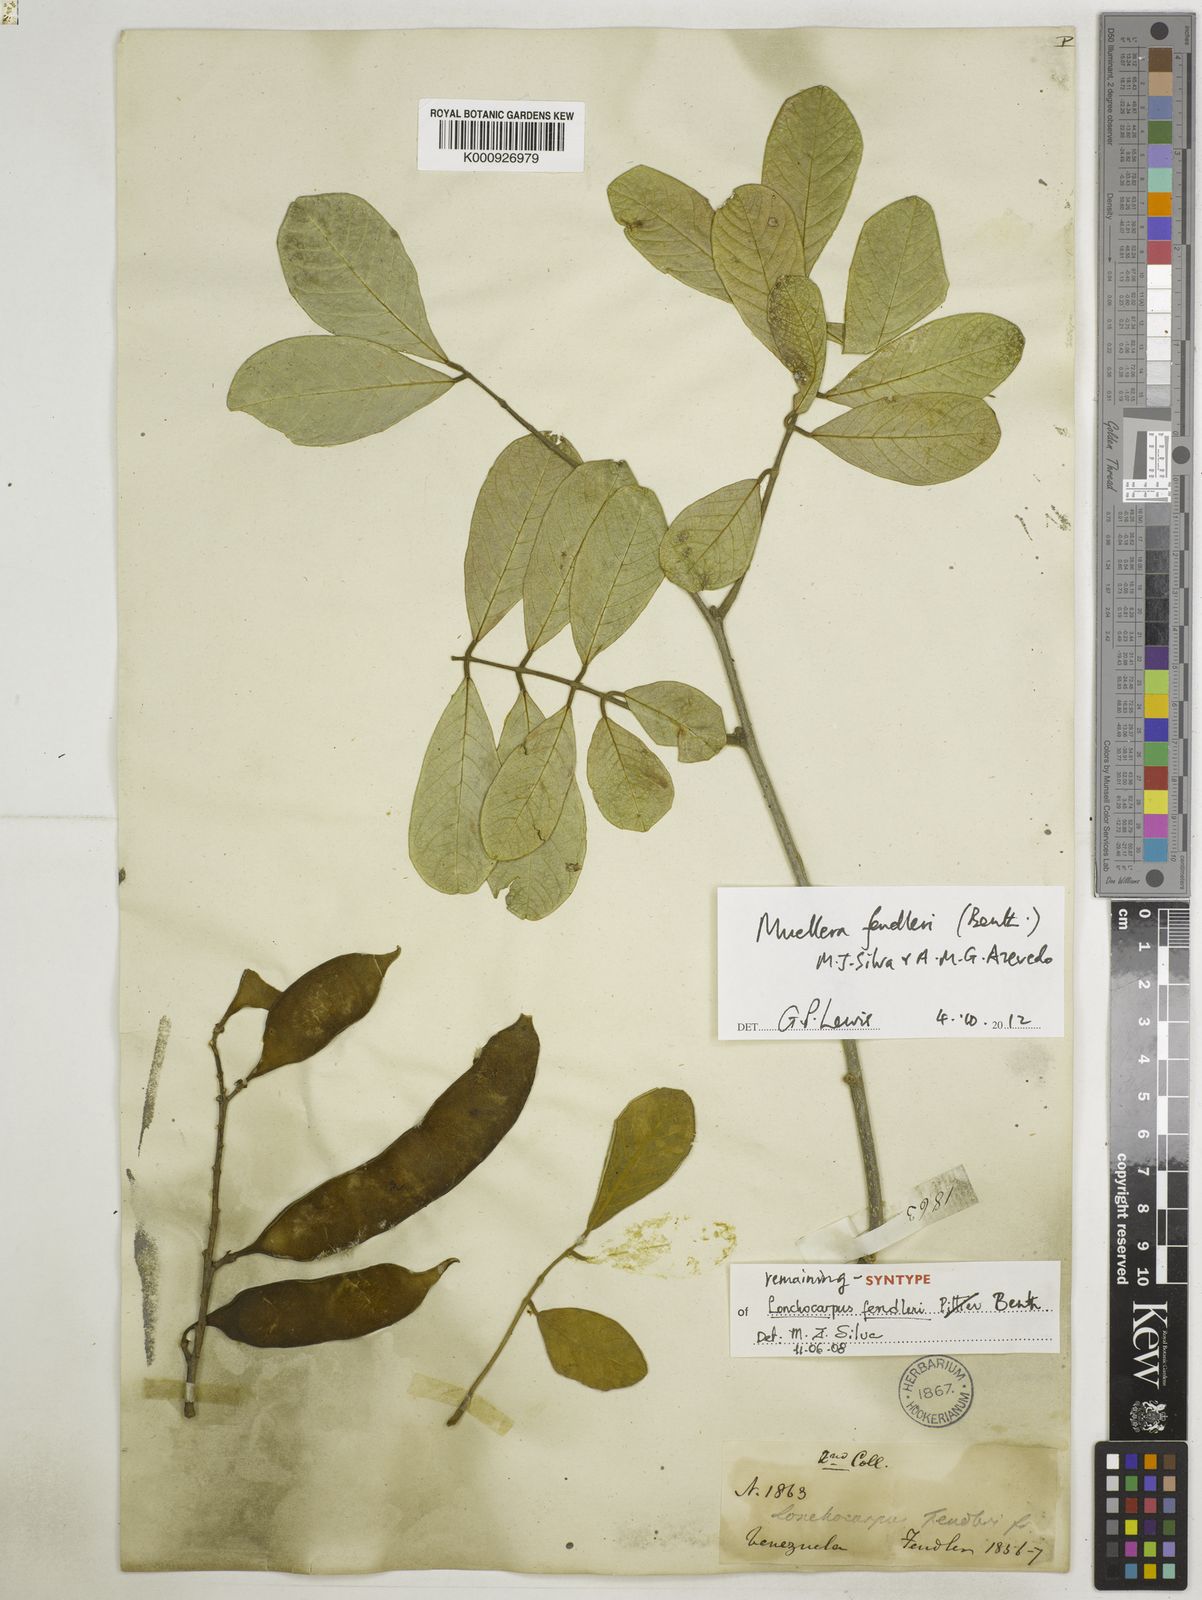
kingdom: Plantae
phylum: Tracheophyta
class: Magnoliopsida
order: Fabales
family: Fabaceae
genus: Muellera
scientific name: Muellera fendleri
